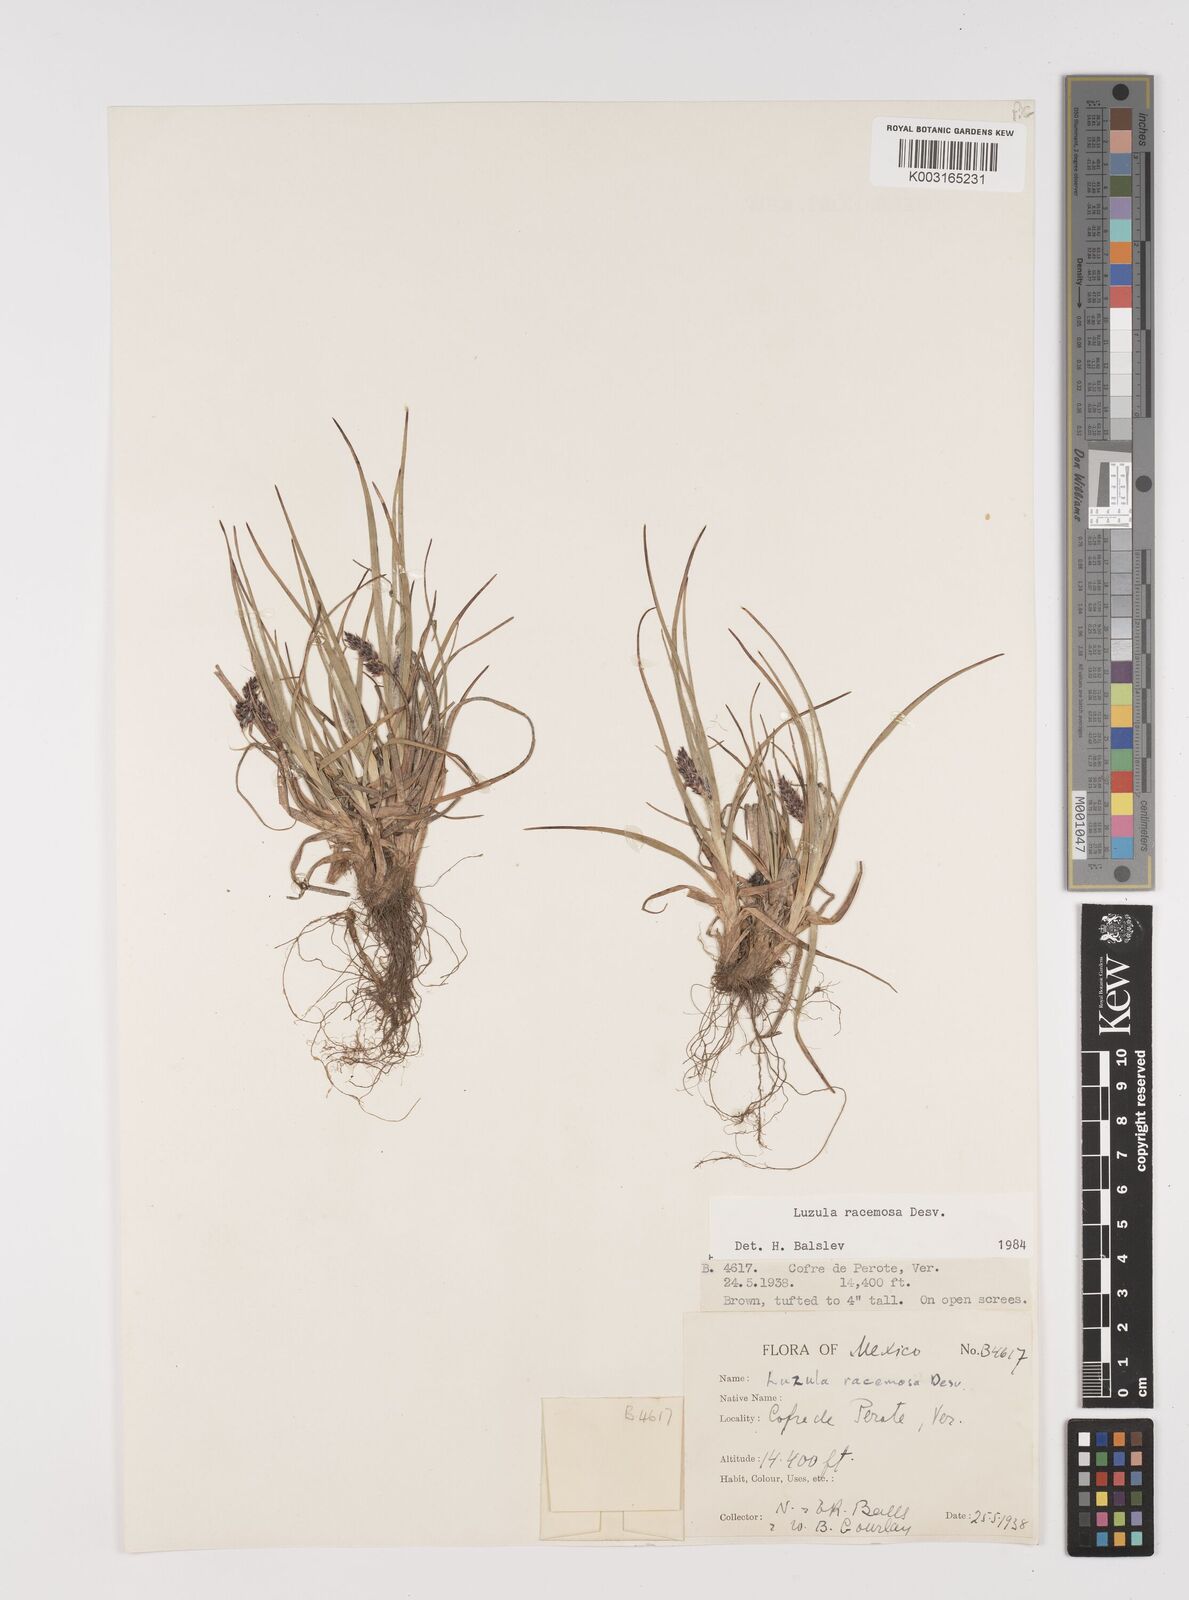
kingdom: Plantae
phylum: Tracheophyta
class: Liliopsida
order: Poales
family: Juncaceae
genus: Luzula
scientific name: Luzula racemosa
